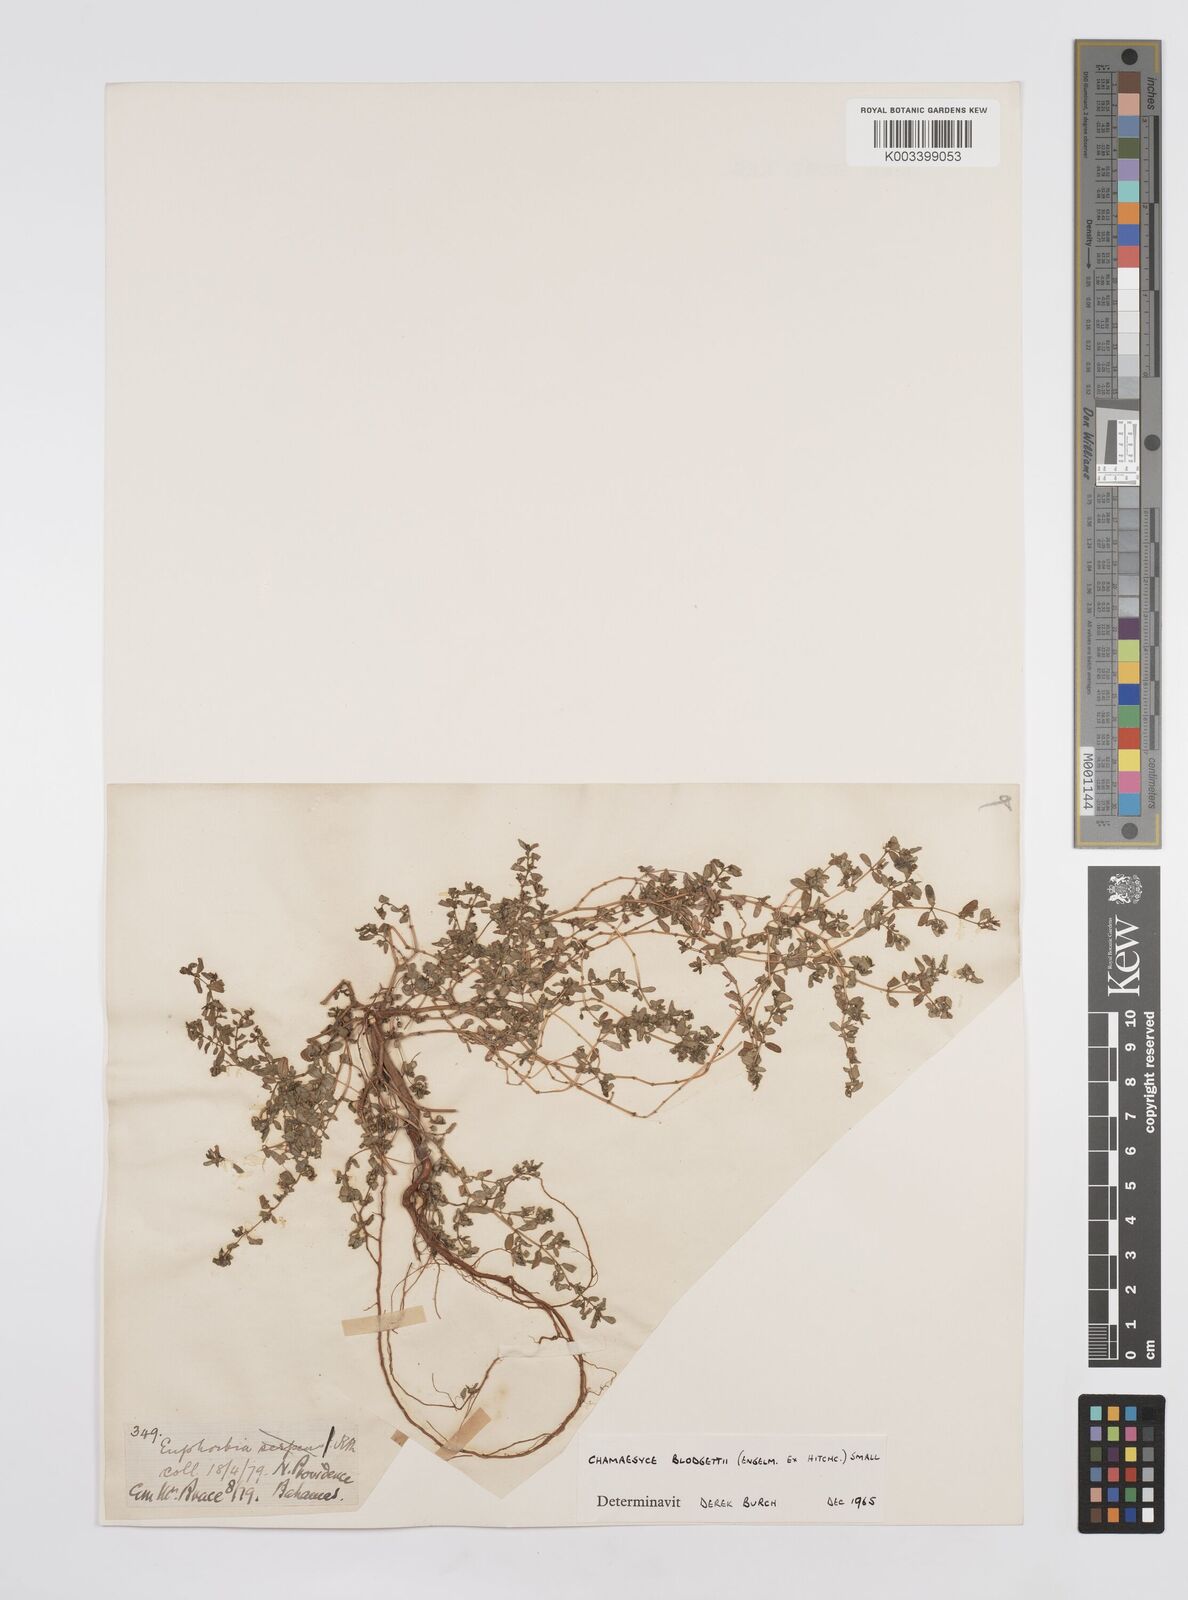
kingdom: Plantae
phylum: Tracheophyta
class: Magnoliopsida
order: Malpighiales
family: Euphorbiaceae
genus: Euphorbia
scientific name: Euphorbia blodgettii
